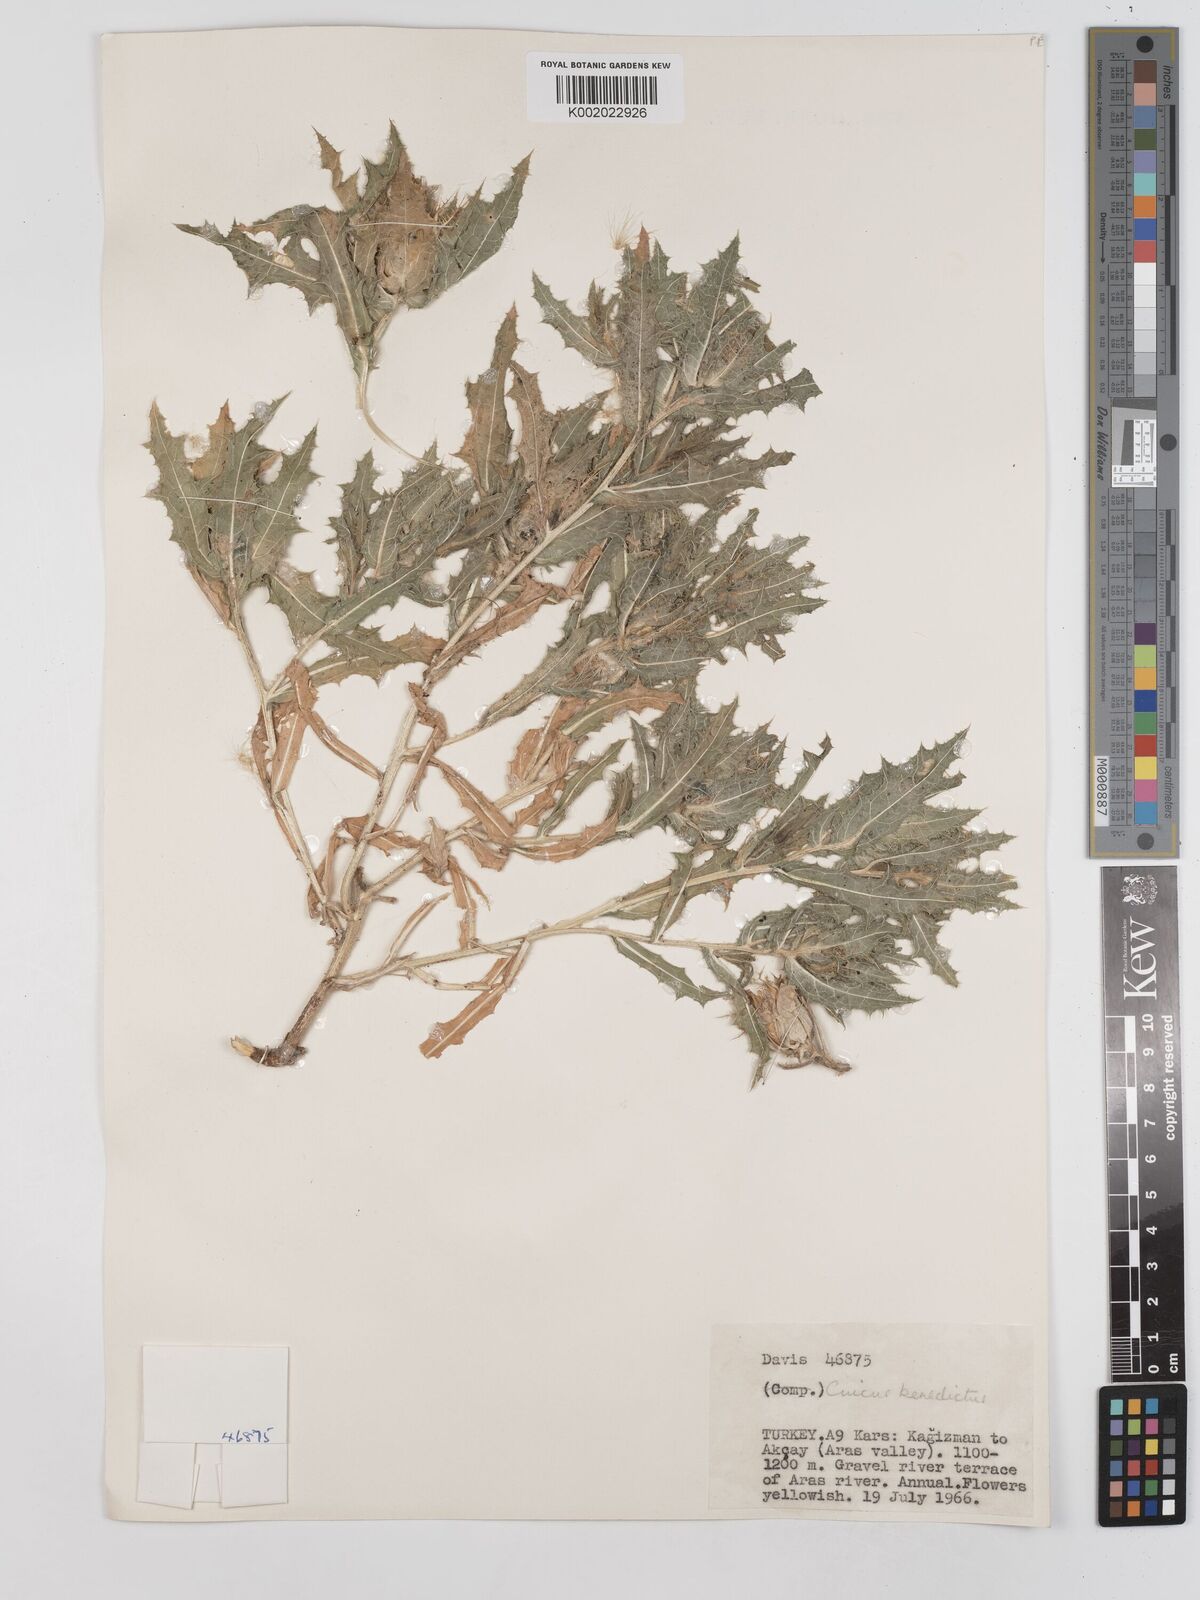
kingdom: Plantae
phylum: Tracheophyta
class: Magnoliopsida
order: Asterales
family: Asteraceae
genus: Centaurea
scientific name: Centaurea benedicta
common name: Blessed thistle
